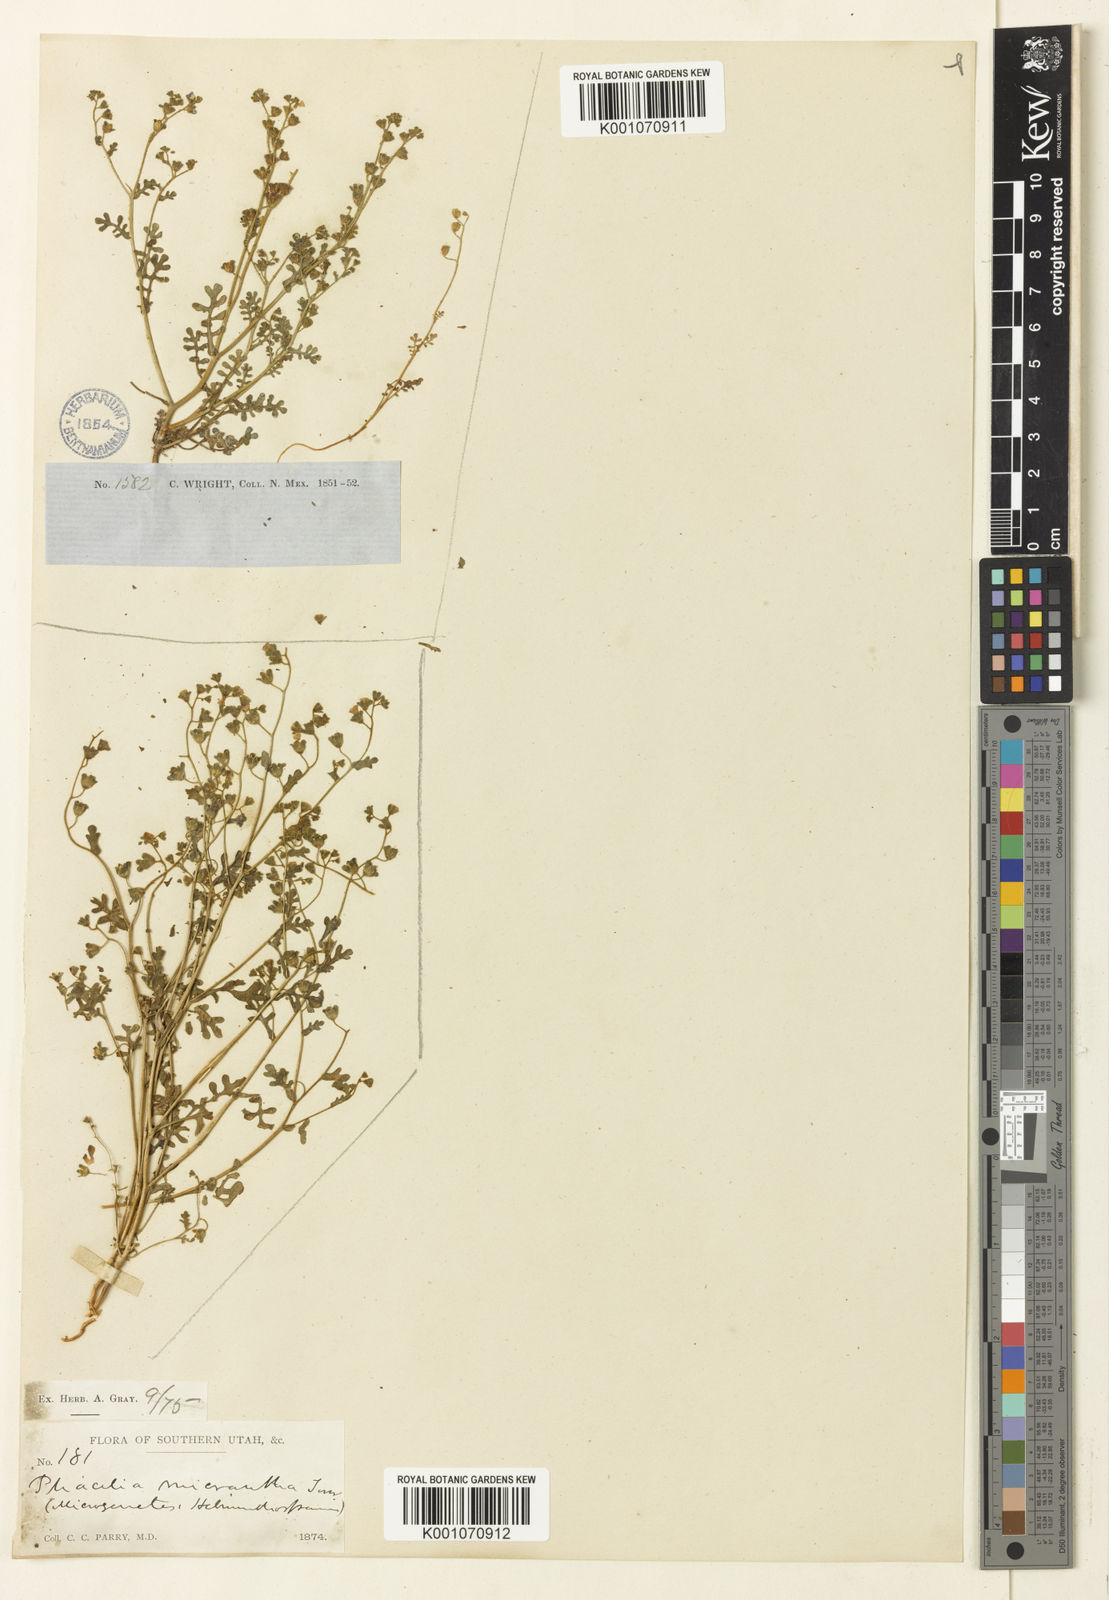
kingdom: Plantae
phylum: Tracheophyta
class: Magnoliopsida
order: Boraginales
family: Hydrophyllaceae
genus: Eucrypta
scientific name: Eucrypta micrantha
